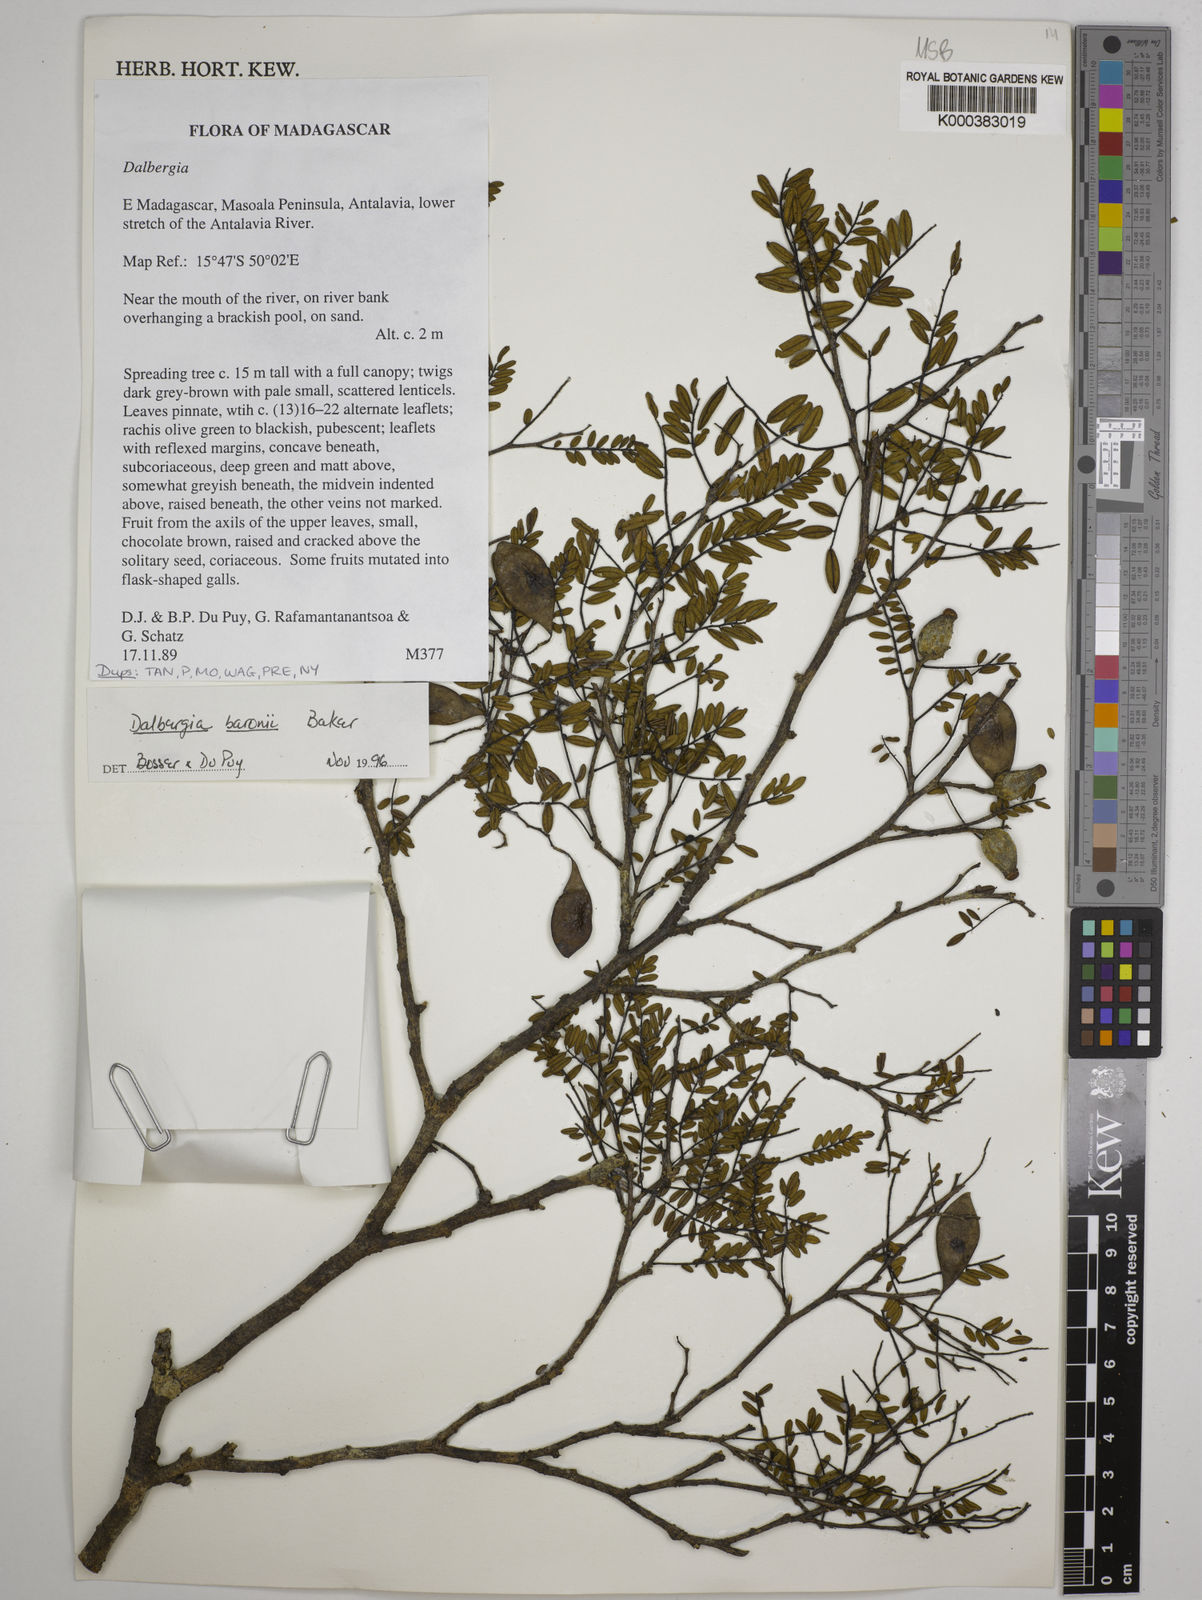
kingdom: Plantae
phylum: Tracheophyta
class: Magnoliopsida
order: Fabales
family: Fabaceae
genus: Dalbergia
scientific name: Dalbergia baronii
